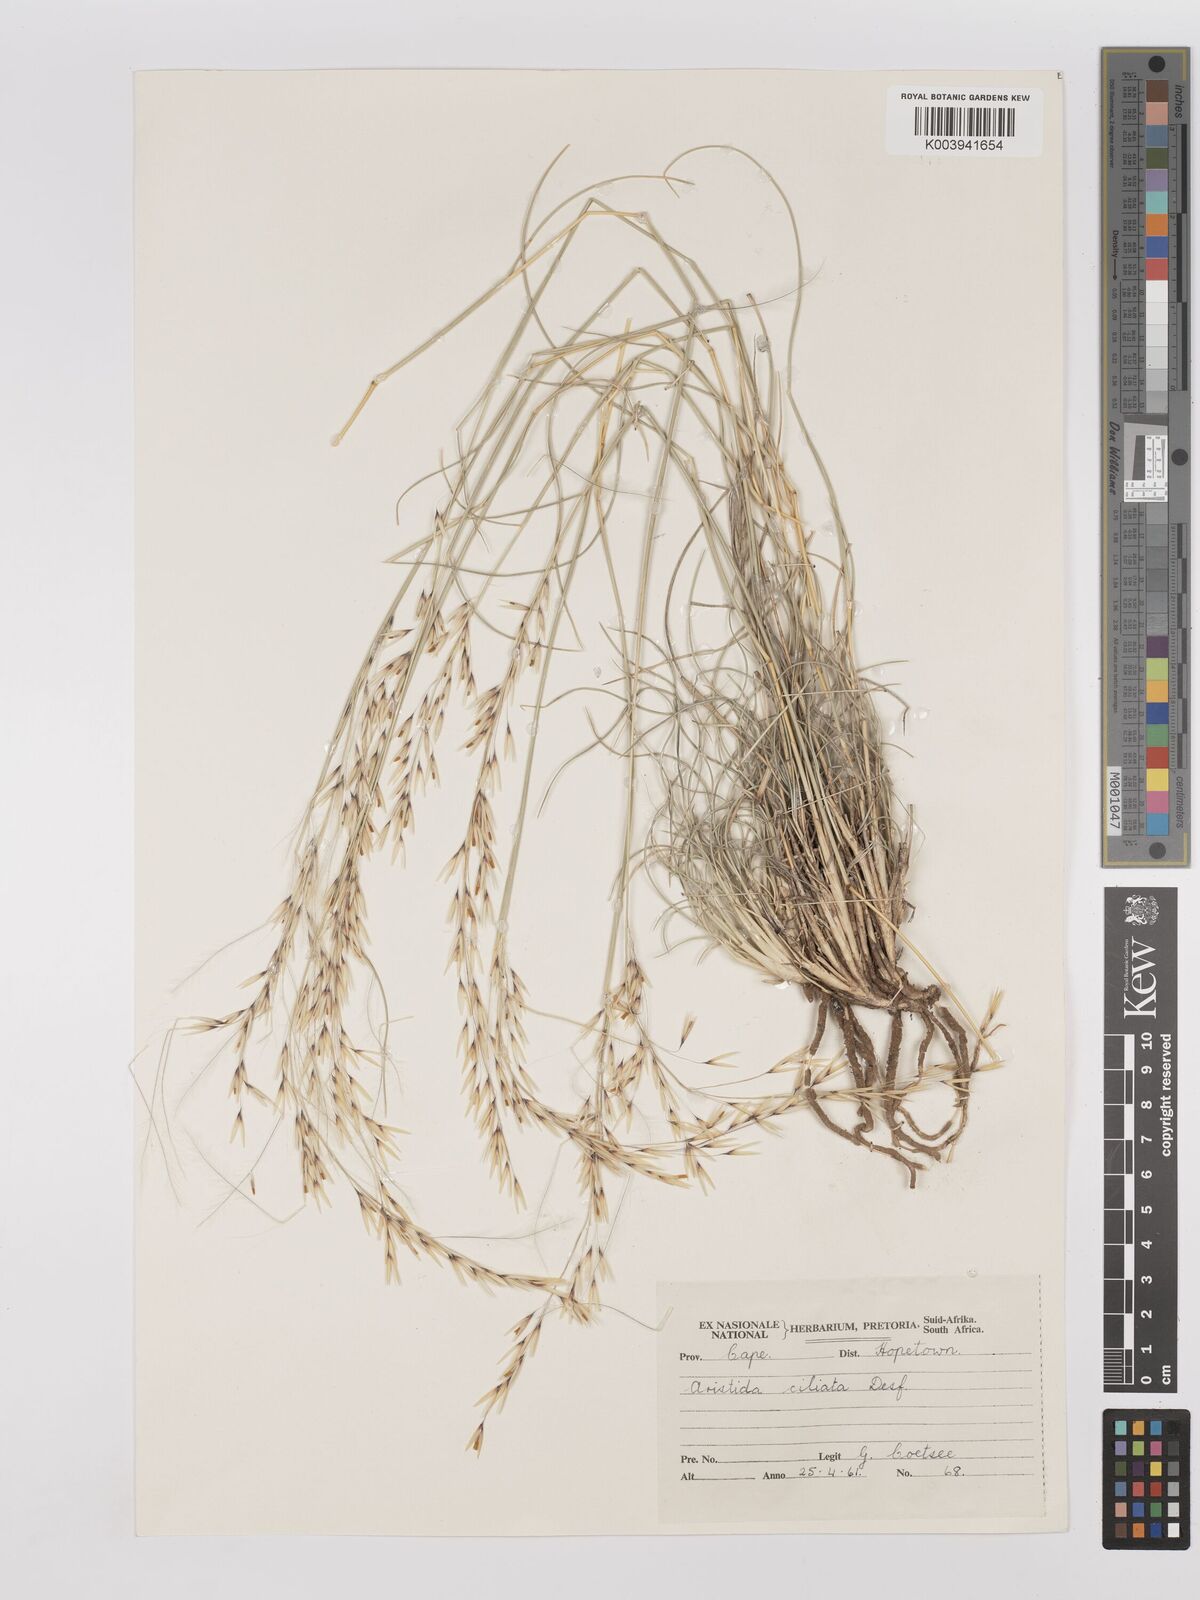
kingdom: Plantae
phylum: Tracheophyta
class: Liliopsida
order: Poales
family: Poaceae
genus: Stipagrostis
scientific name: Stipagrostis ciliata
